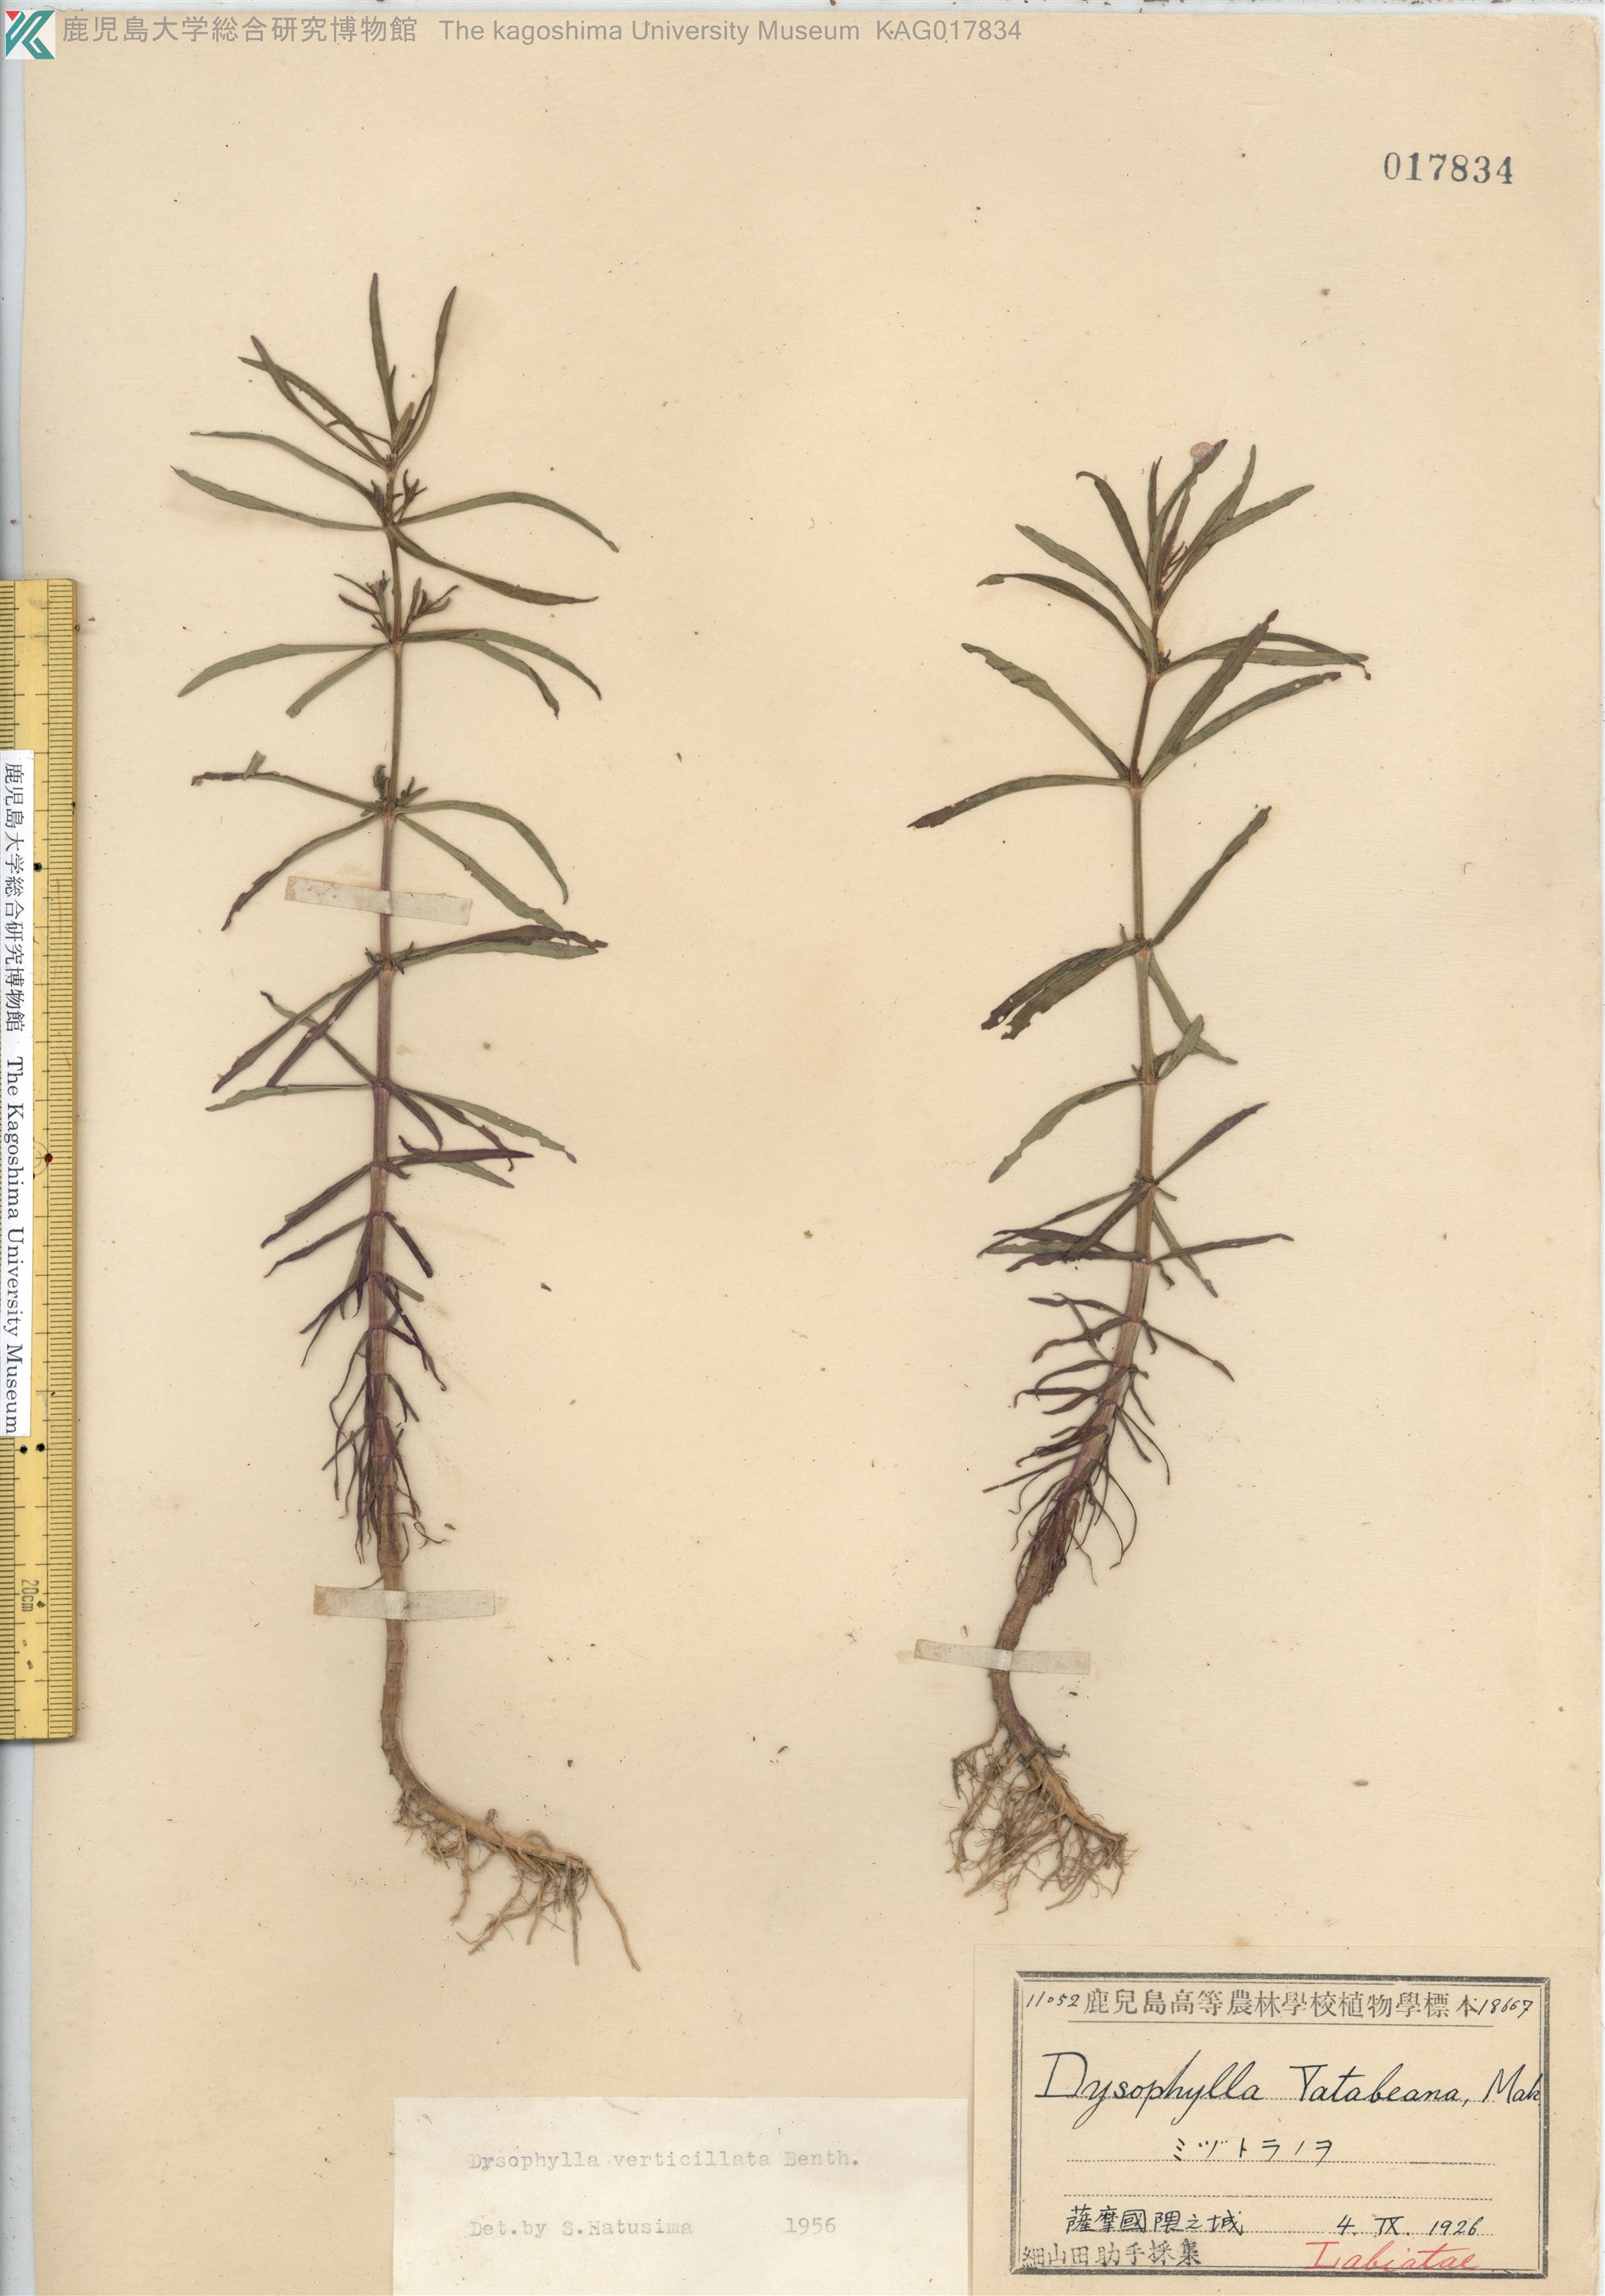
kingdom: Plantae
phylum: Tracheophyta
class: Magnoliopsida
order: Lamiales
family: Lamiaceae
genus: Pogostemon
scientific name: Pogostemon stellatus
